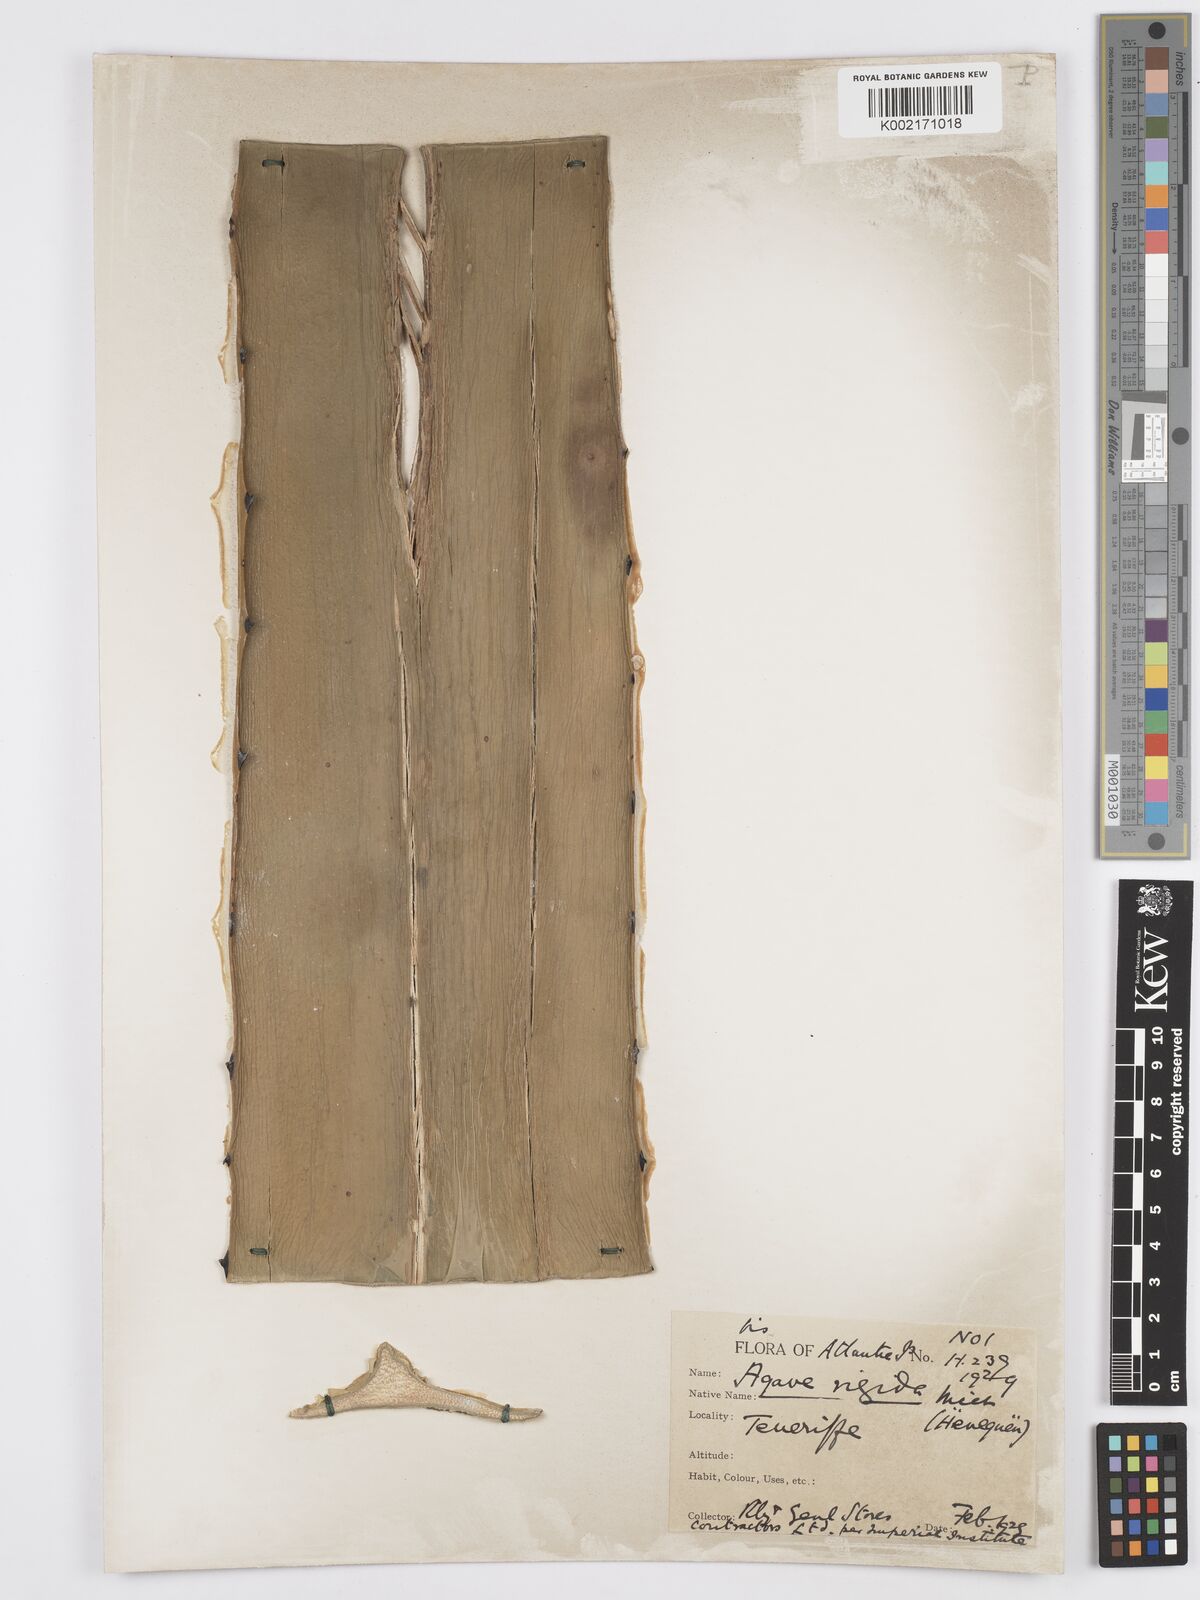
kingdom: Plantae
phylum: Tracheophyta
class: Liliopsida
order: Asparagales
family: Asparagaceae
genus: Agave
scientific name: Agave angustifolia
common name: Mescal agave
